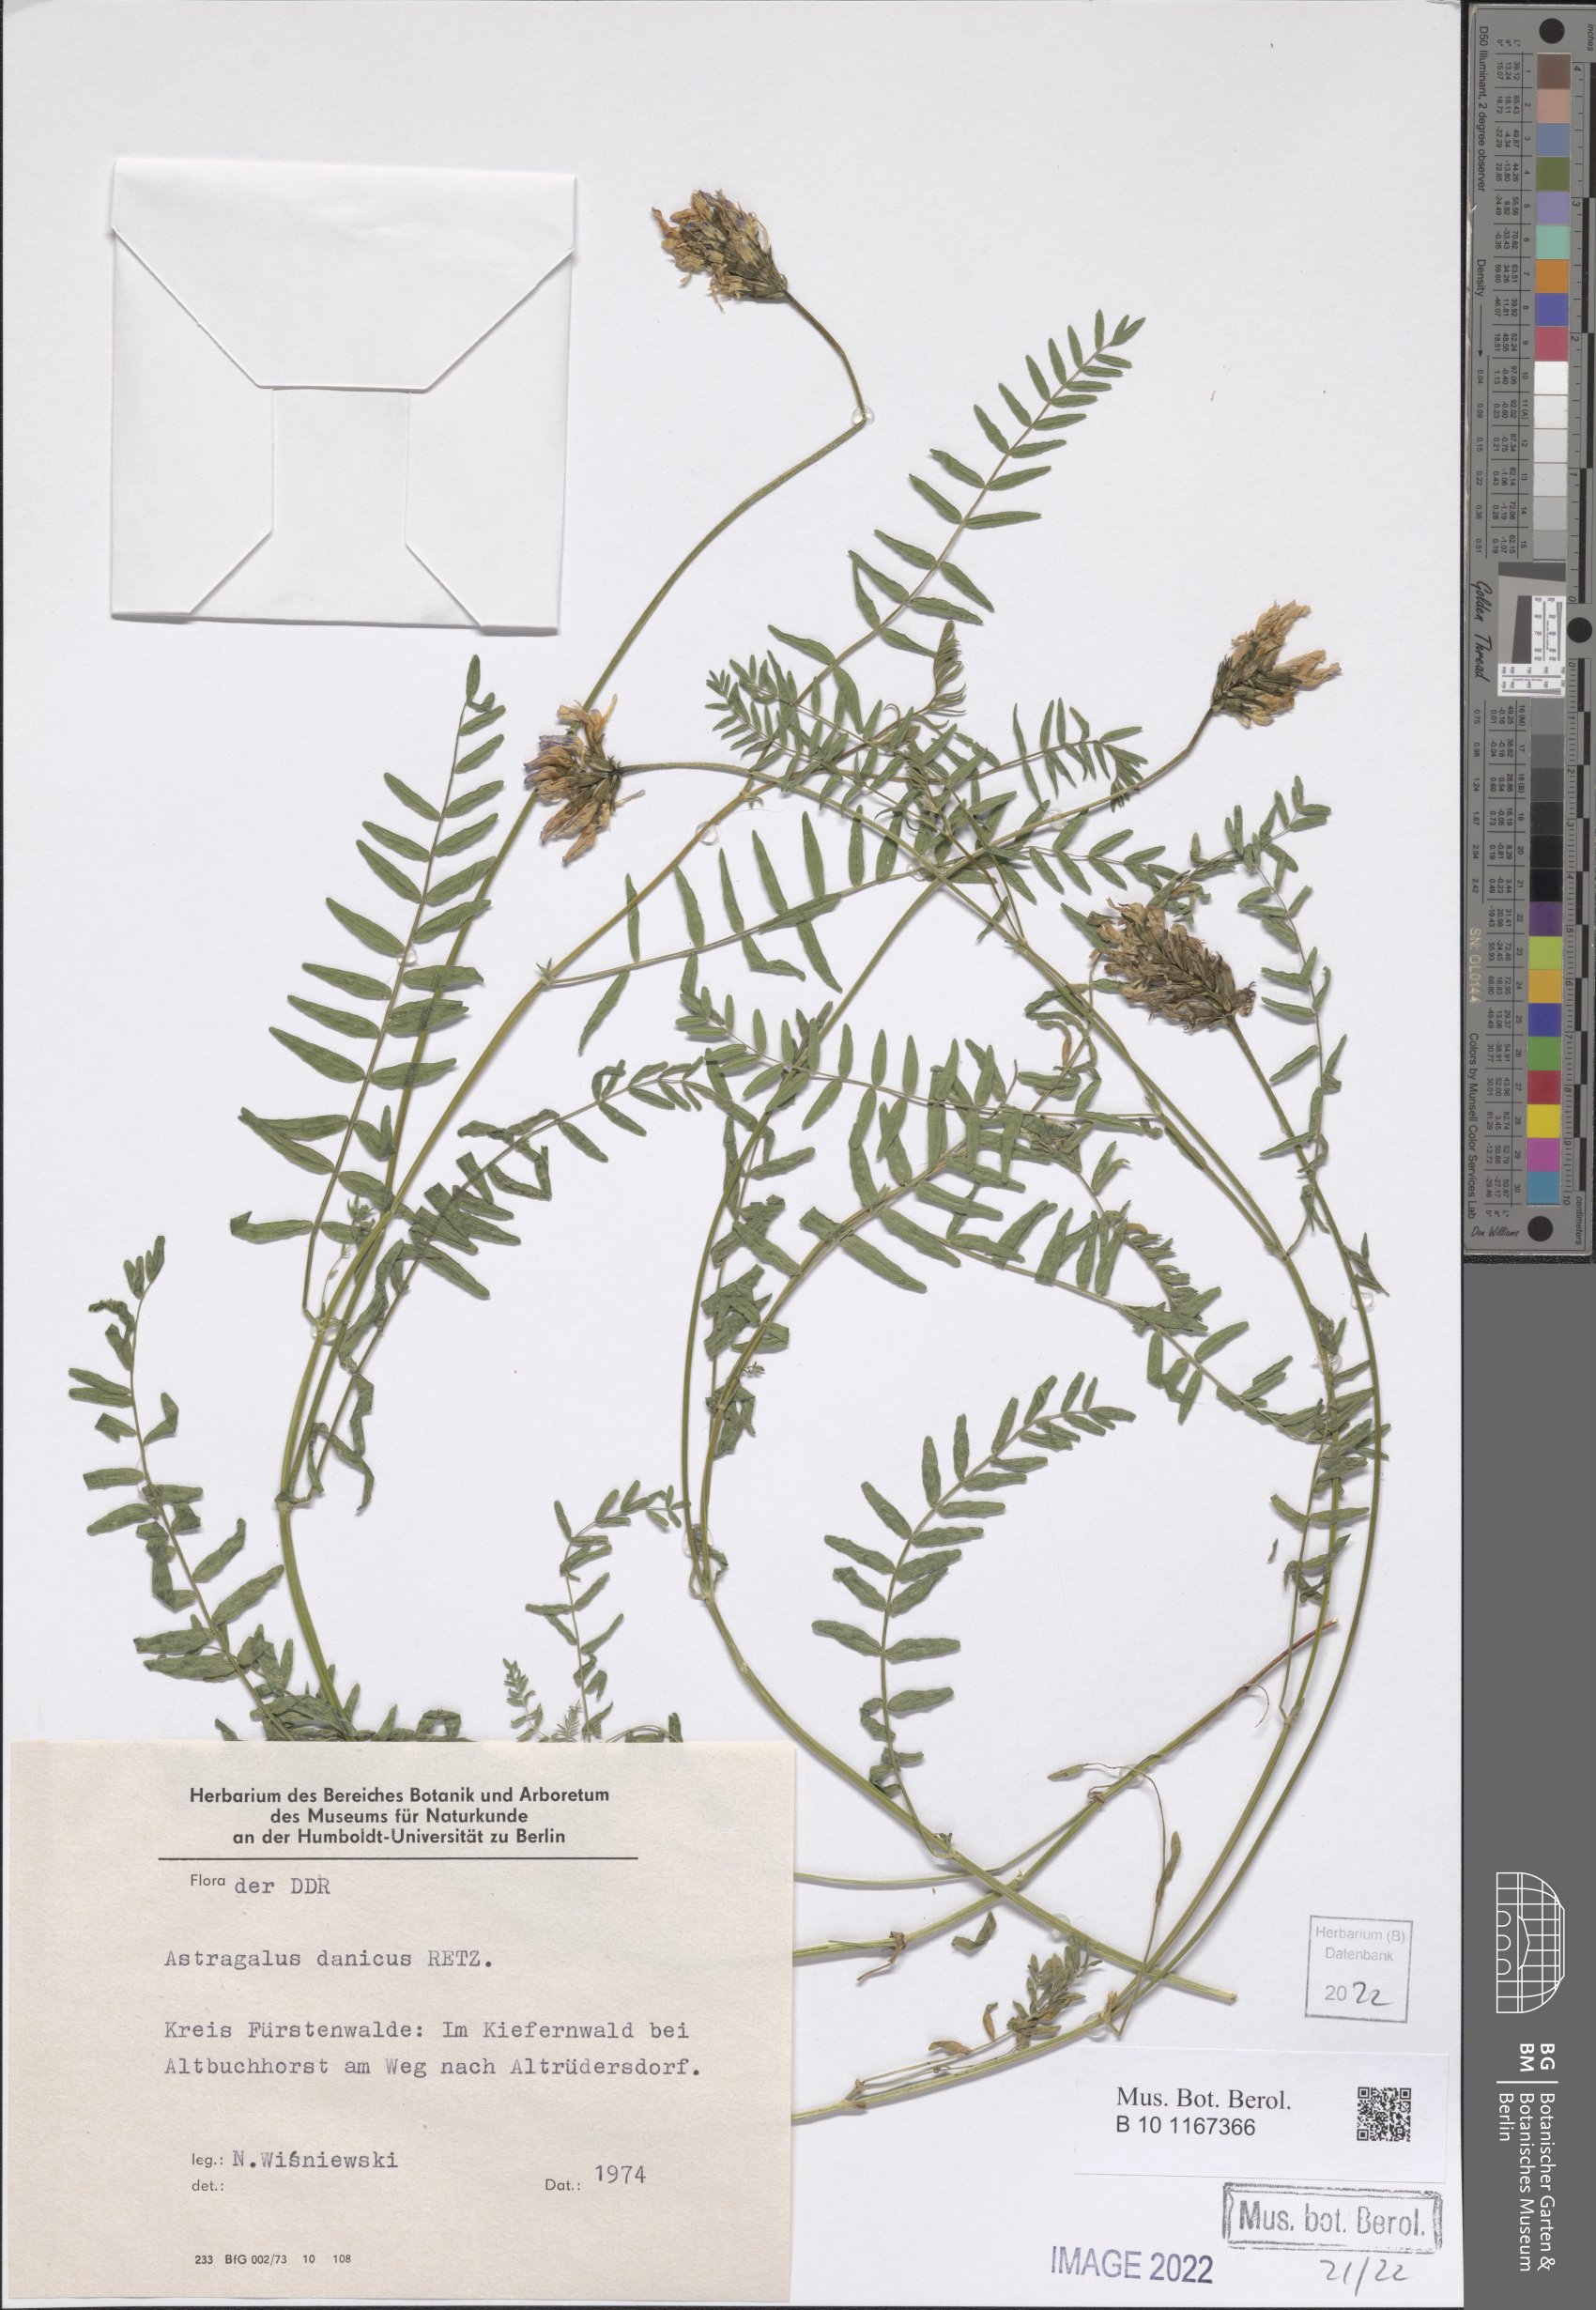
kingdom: Plantae
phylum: Tracheophyta
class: Magnoliopsida
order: Fabales
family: Fabaceae
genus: Astragalus
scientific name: Astragalus danicus
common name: Purple milk-vetch
